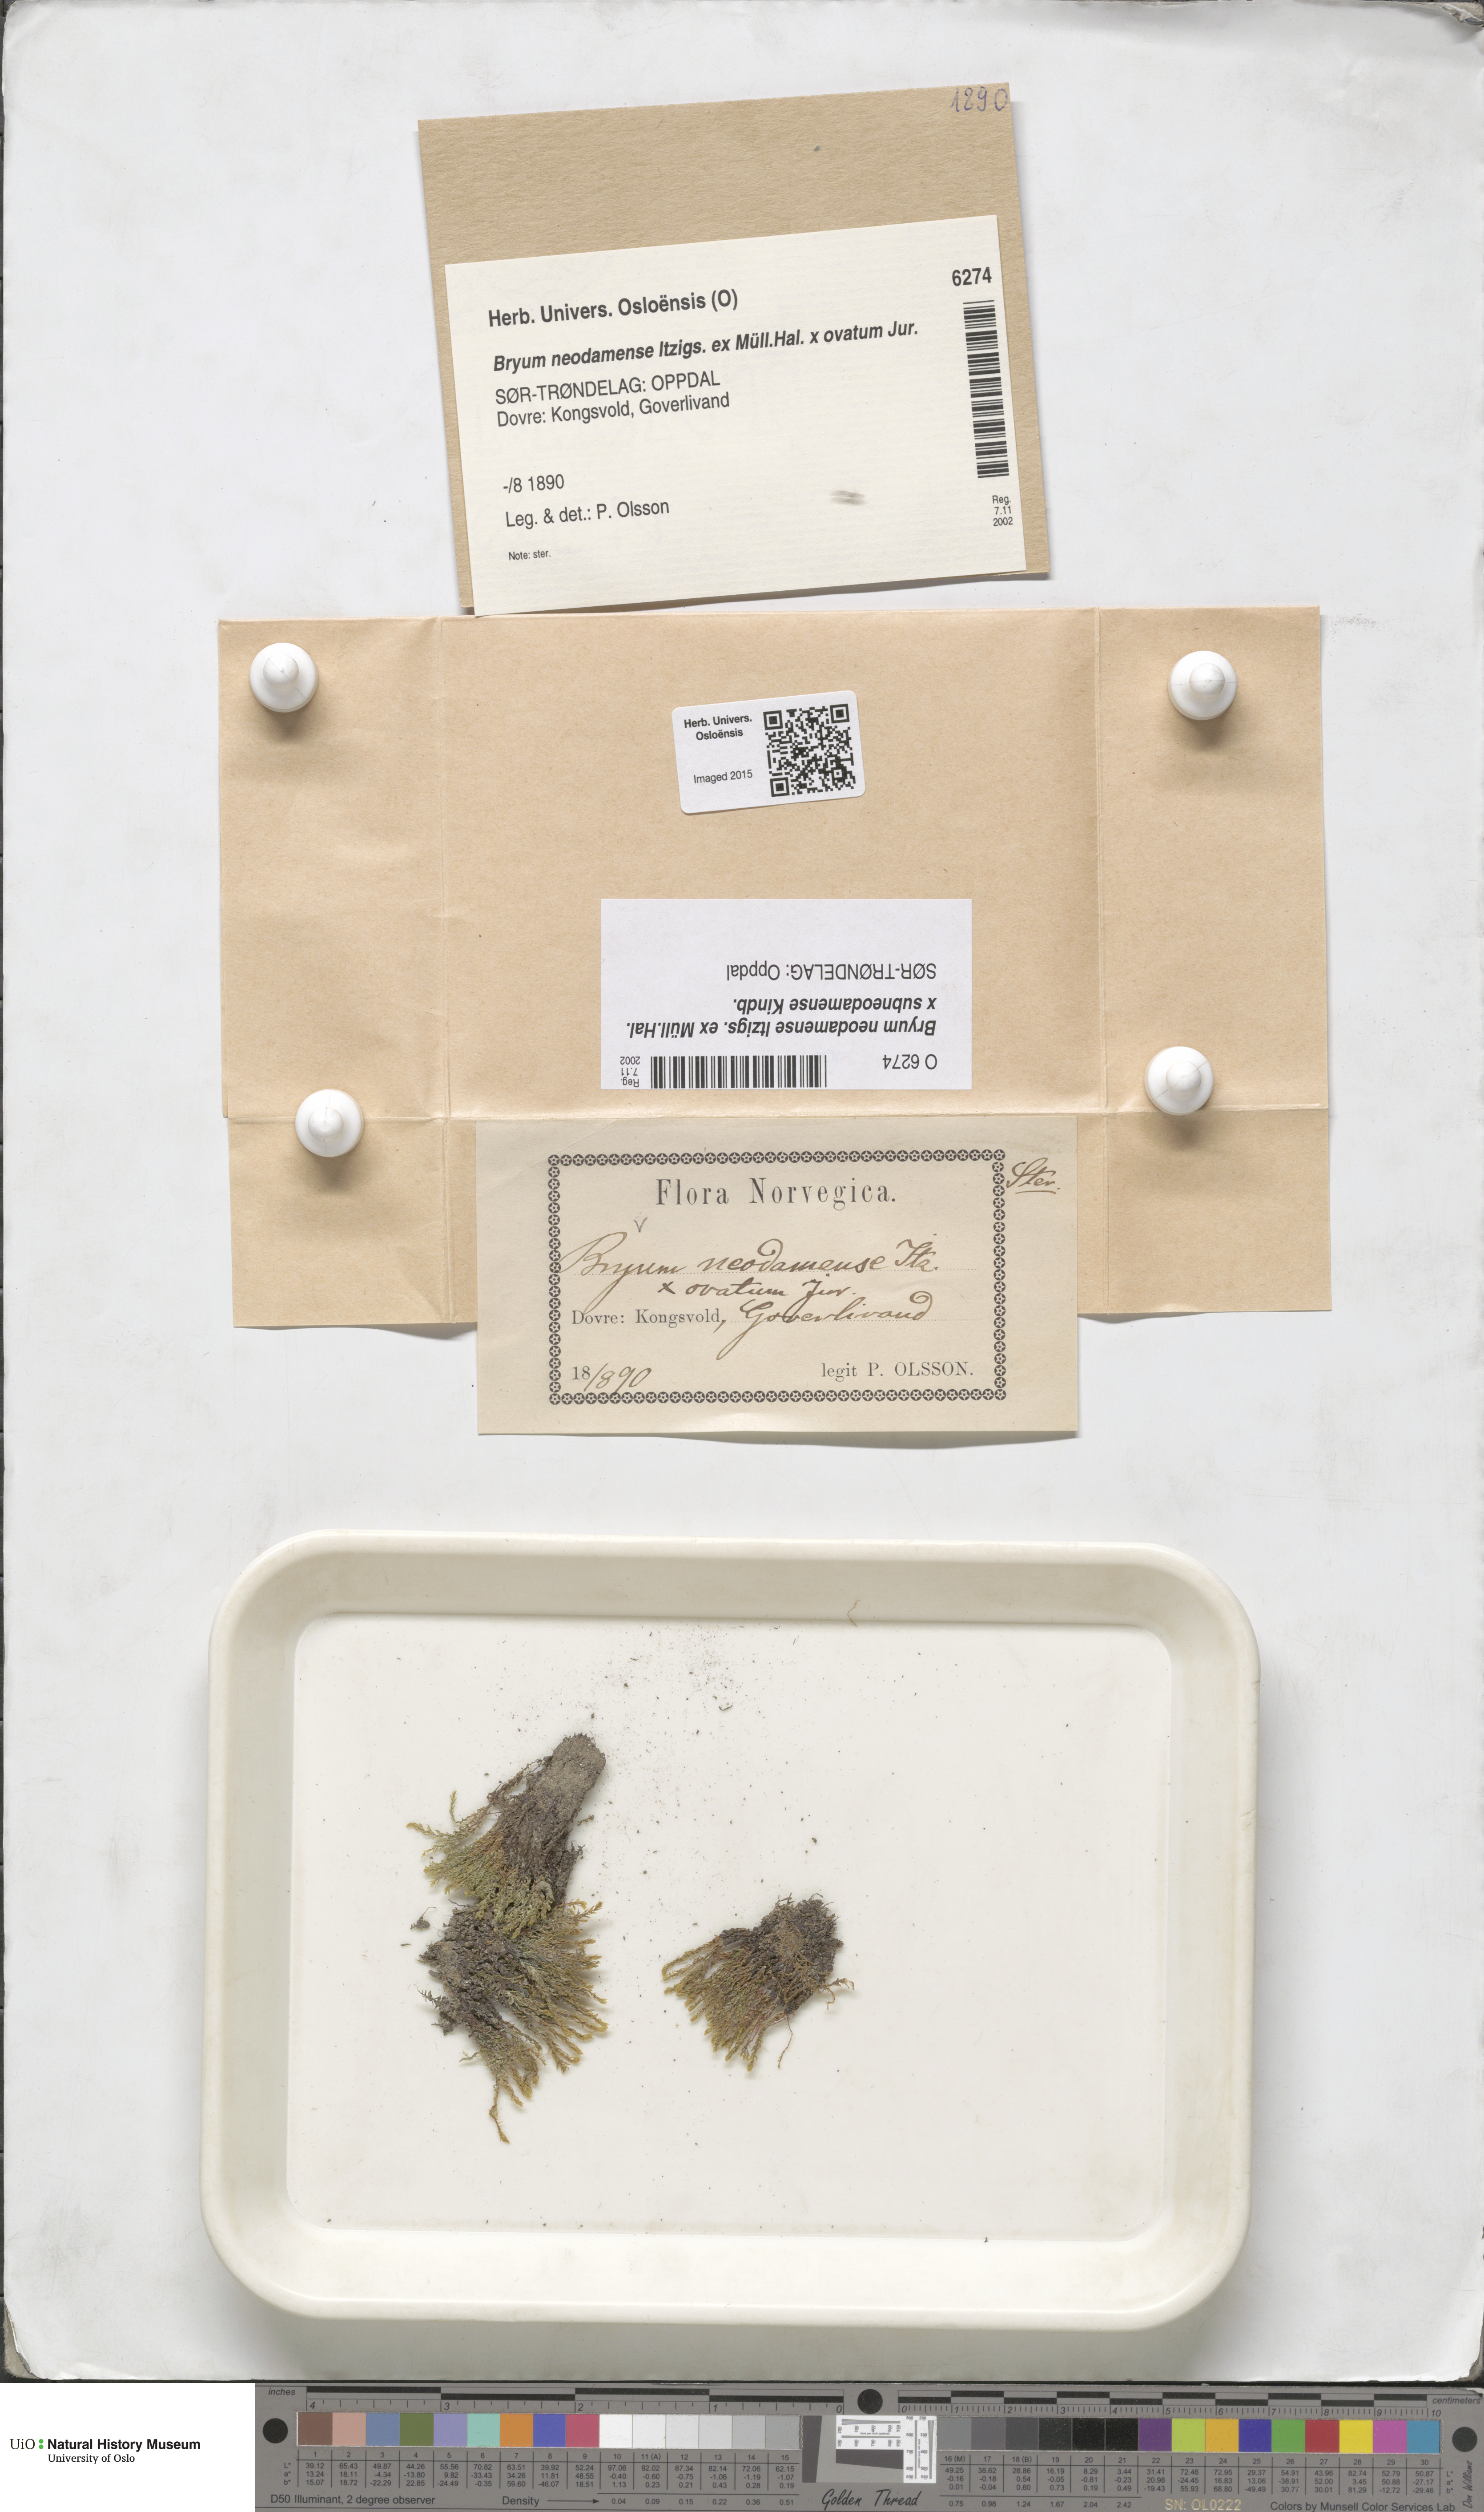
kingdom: Plantae
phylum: Bryophyta
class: Bryopsida
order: Bryales
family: Bryaceae
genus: Ptychostomum
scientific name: Ptychostomum pseudotriquetrum
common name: Long-leaved thread moss
